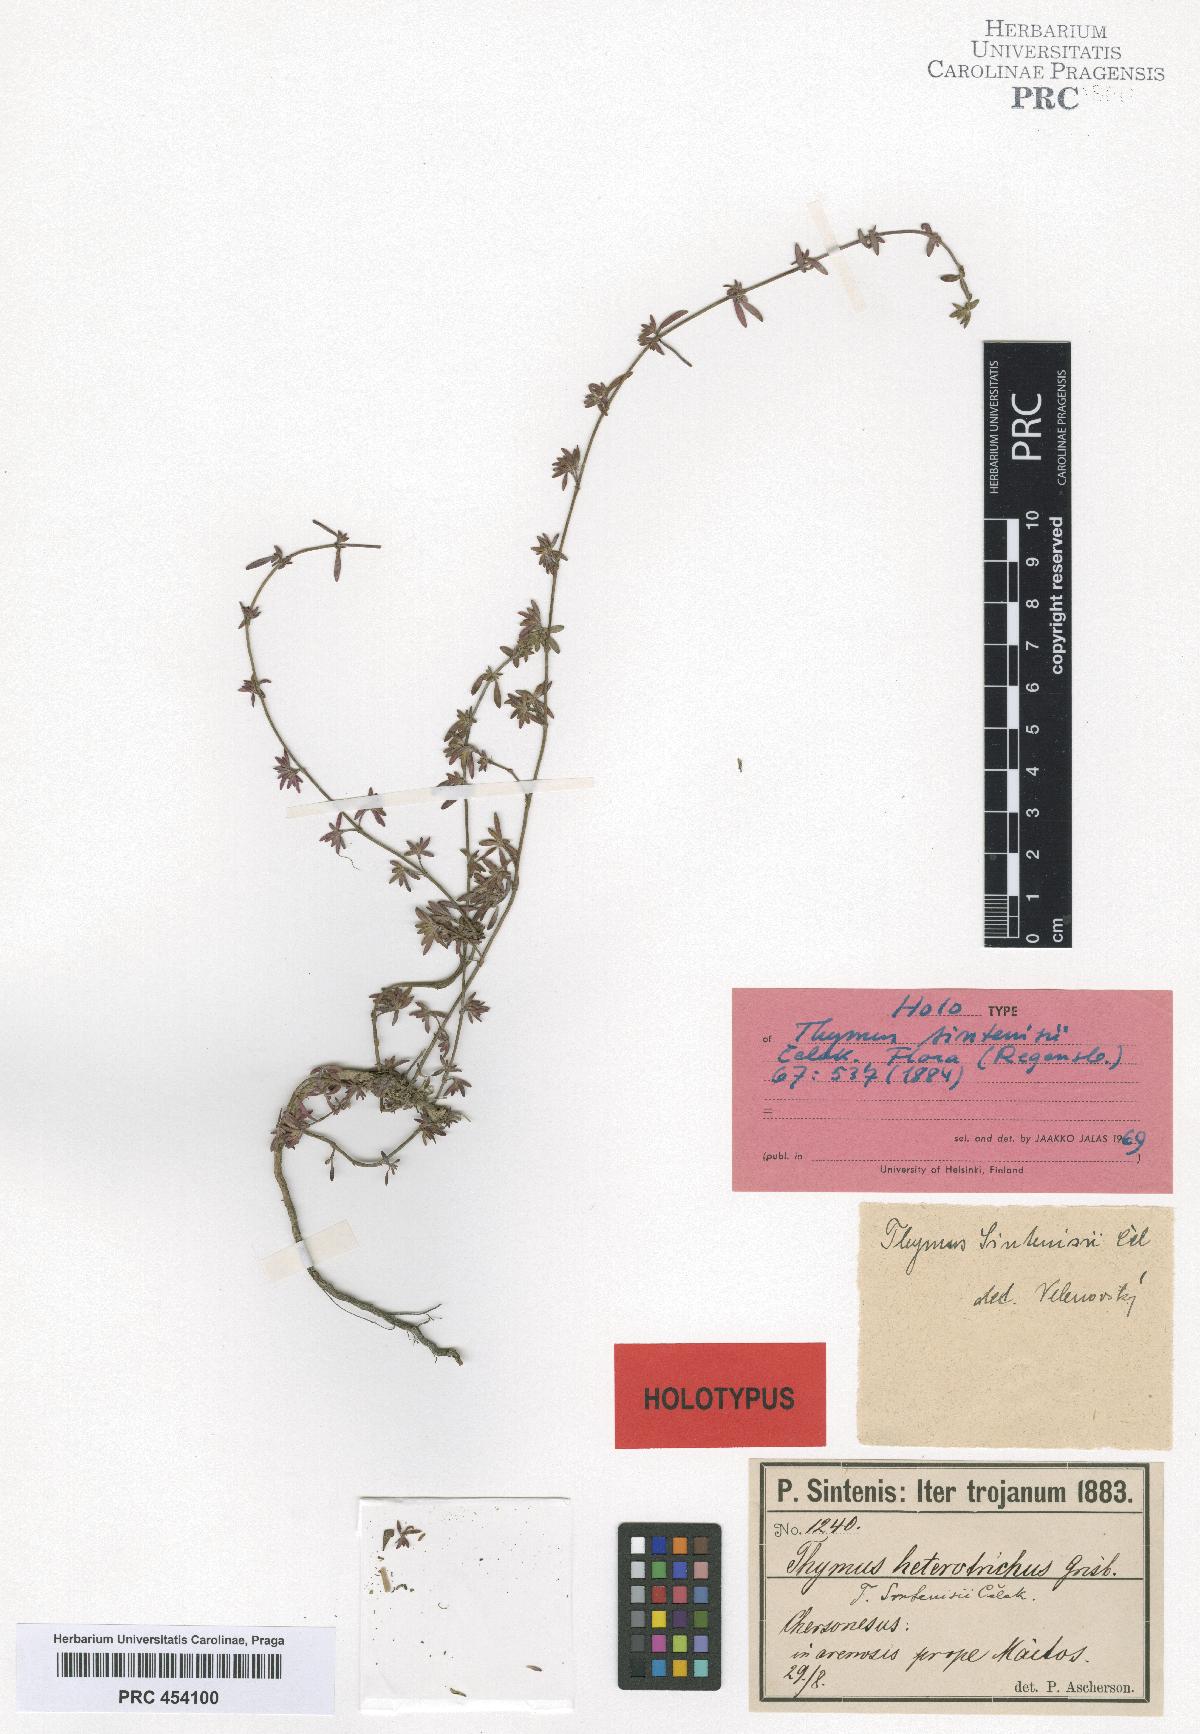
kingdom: Plantae
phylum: Tracheophyta
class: Magnoliopsida
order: Lamiales
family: Lamiaceae
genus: Thymus
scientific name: Thymus zygioides
